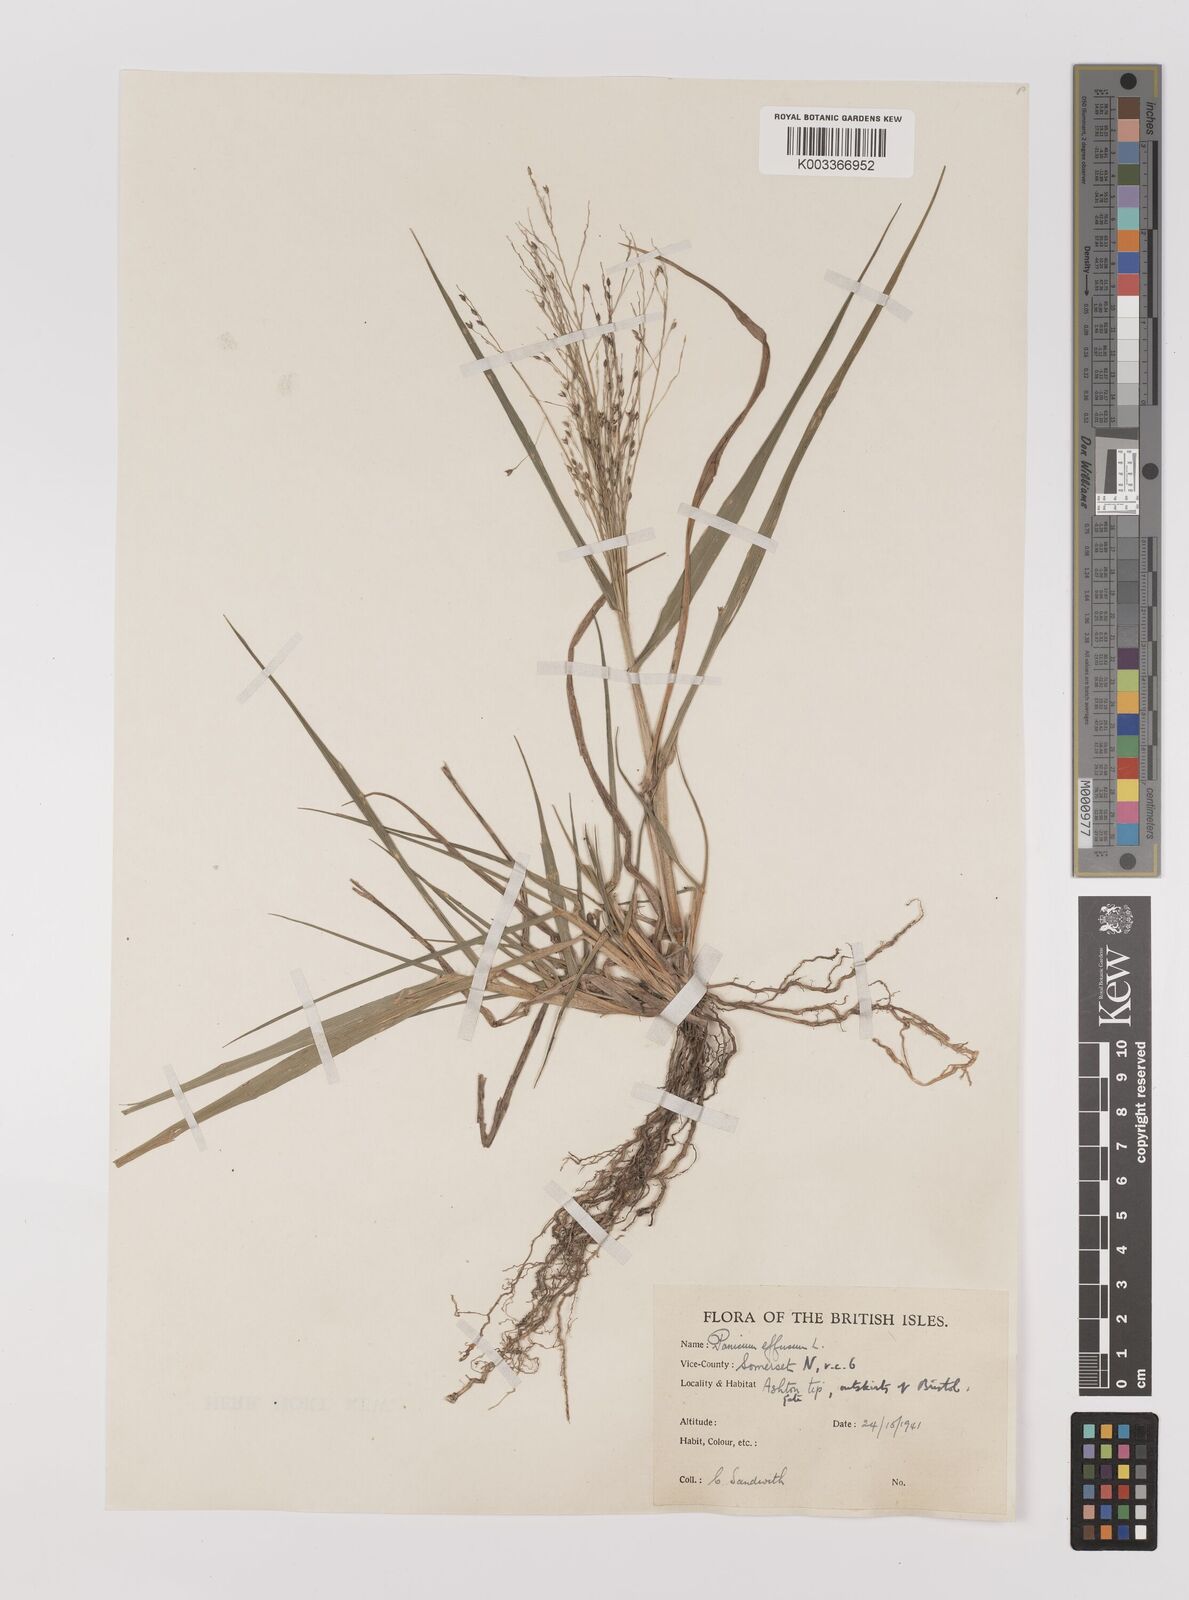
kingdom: Plantae
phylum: Tracheophyta
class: Liliopsida
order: Poales
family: Poaceae
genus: Panicum
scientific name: Panicum effusum
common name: Hairy panic grass
